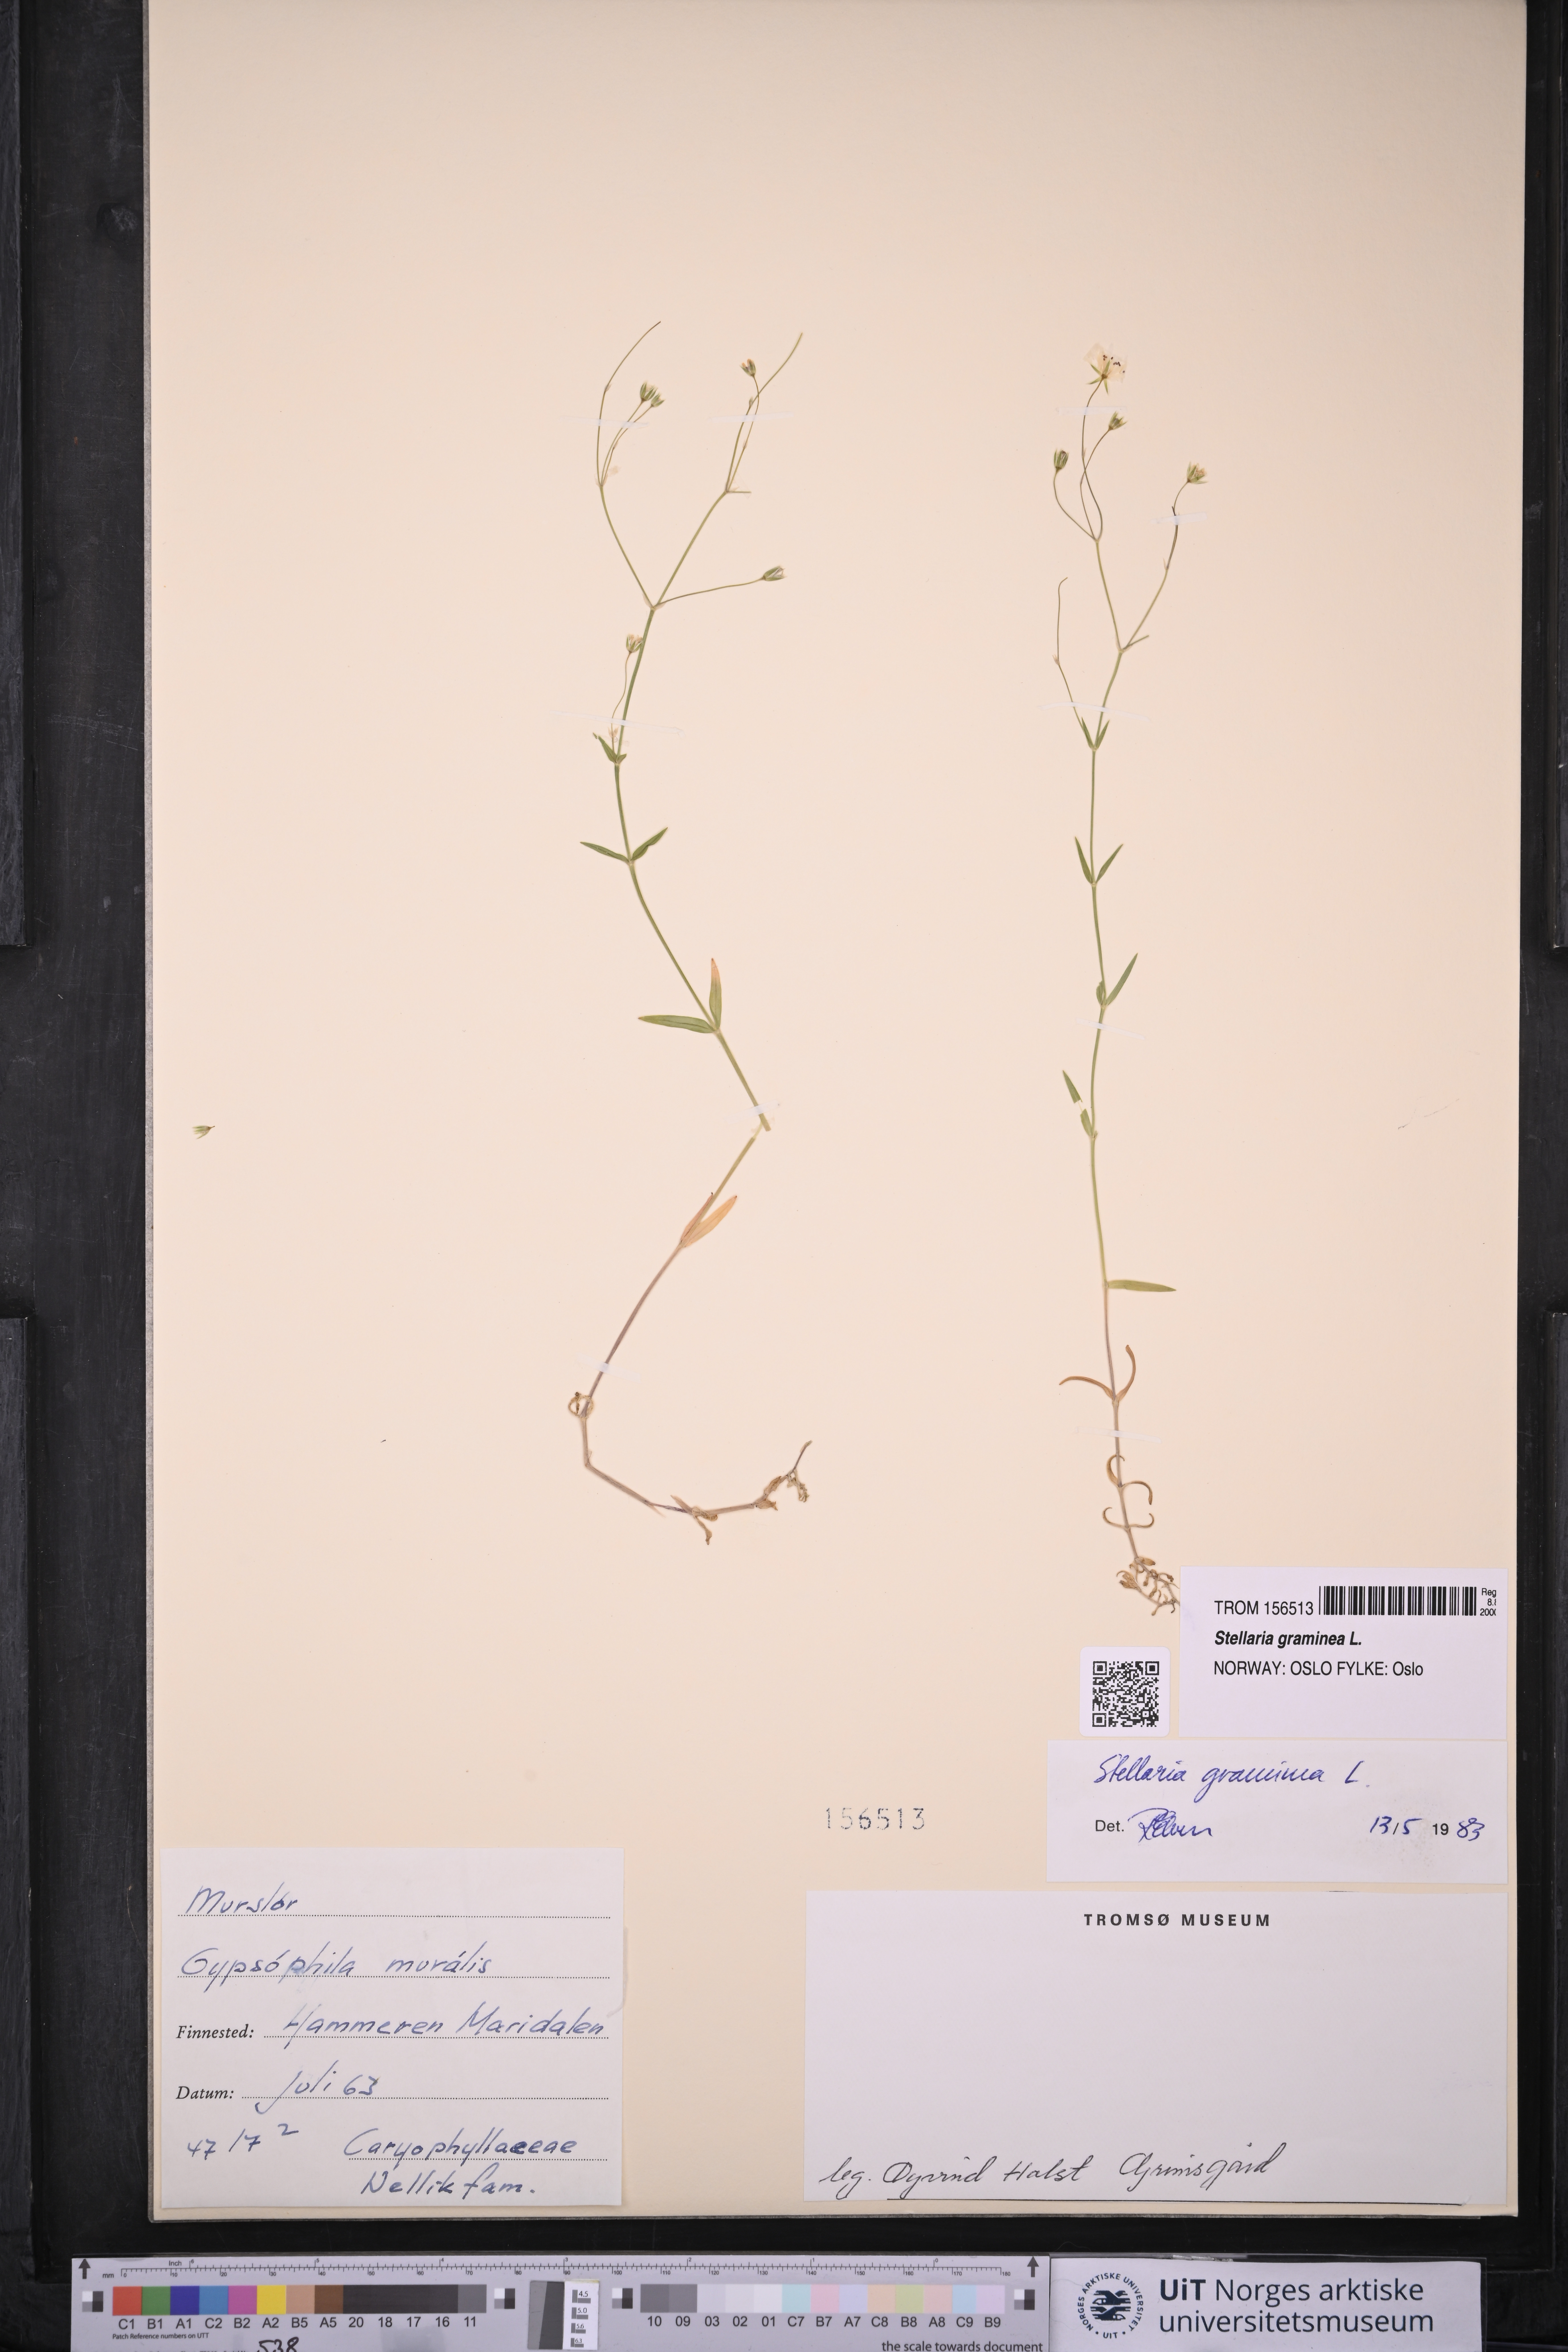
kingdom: Plantae
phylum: Tracheophyta
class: Magnoliopsida
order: Caryophyllales
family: Caryophyllaceae
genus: Stellaria
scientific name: Stellaria graminea
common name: Grass-like starwort
